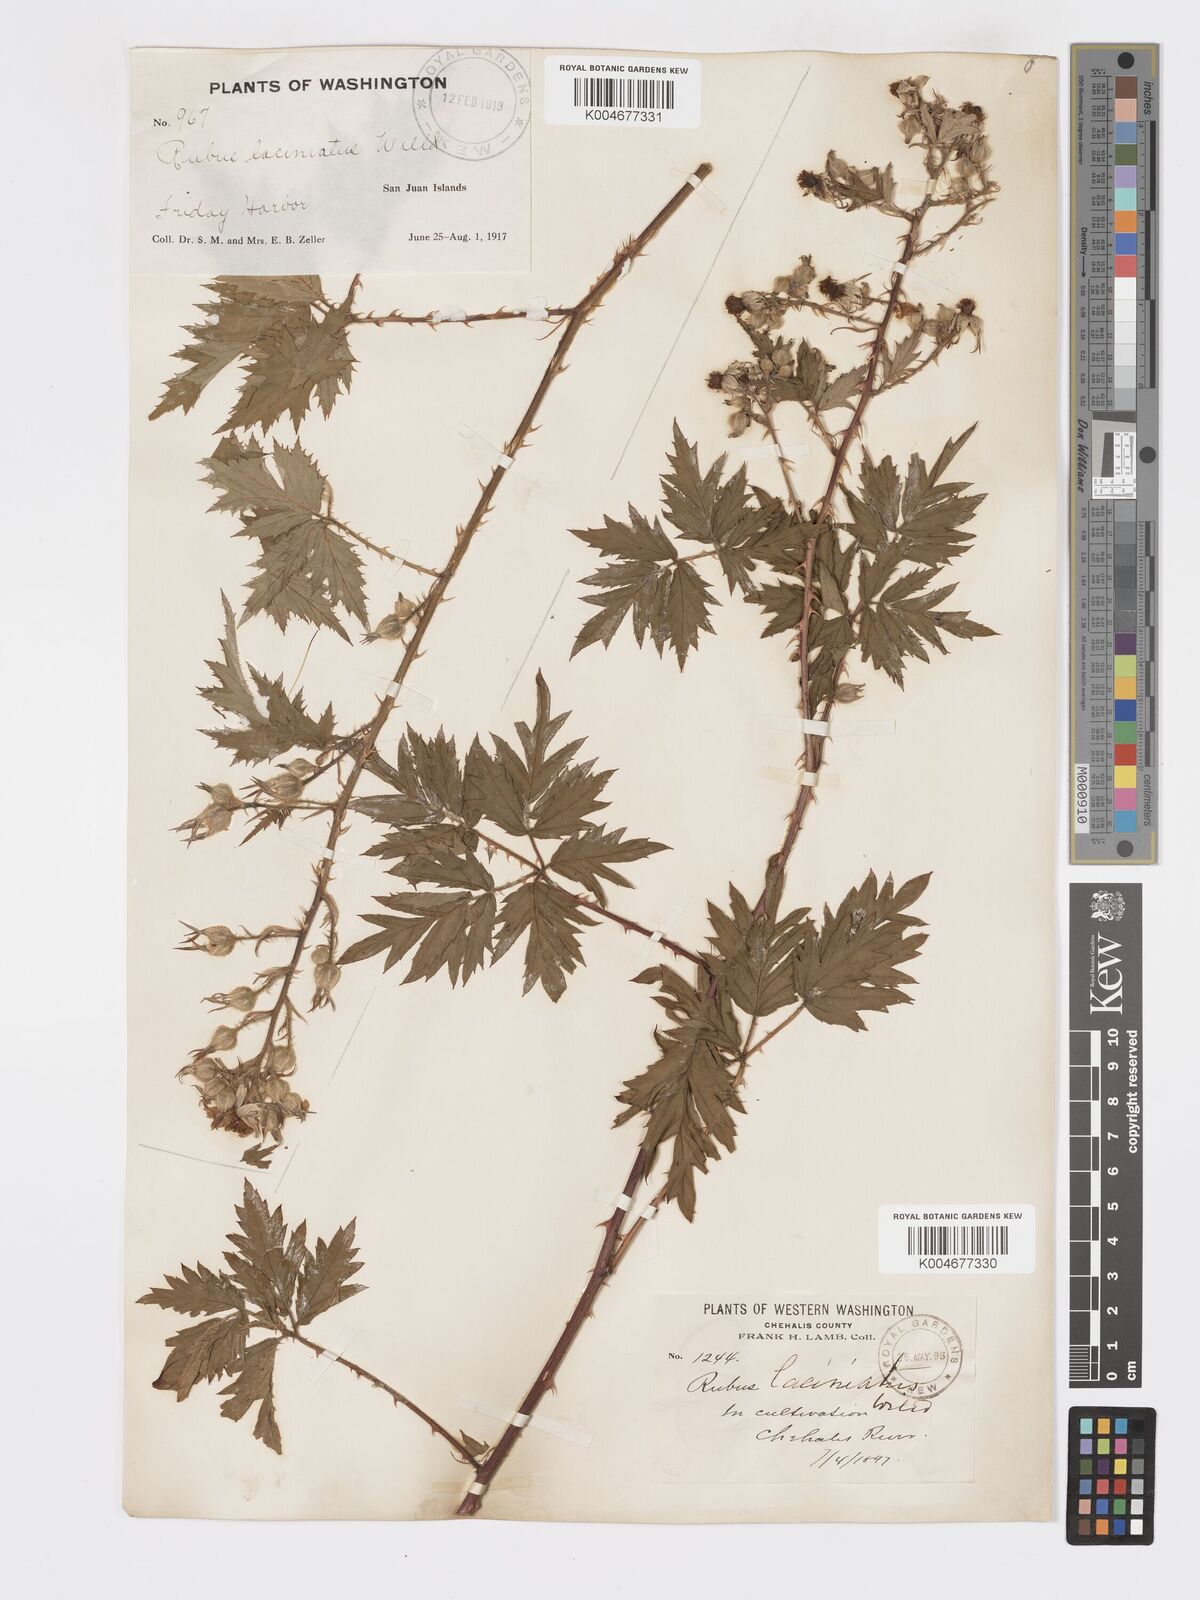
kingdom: Plantae
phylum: Tracheophyta
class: Magnoliopsida
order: Rosales
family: Rosaceae
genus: Rubus
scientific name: Rubus laciniatus
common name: Evergreen blackberry
